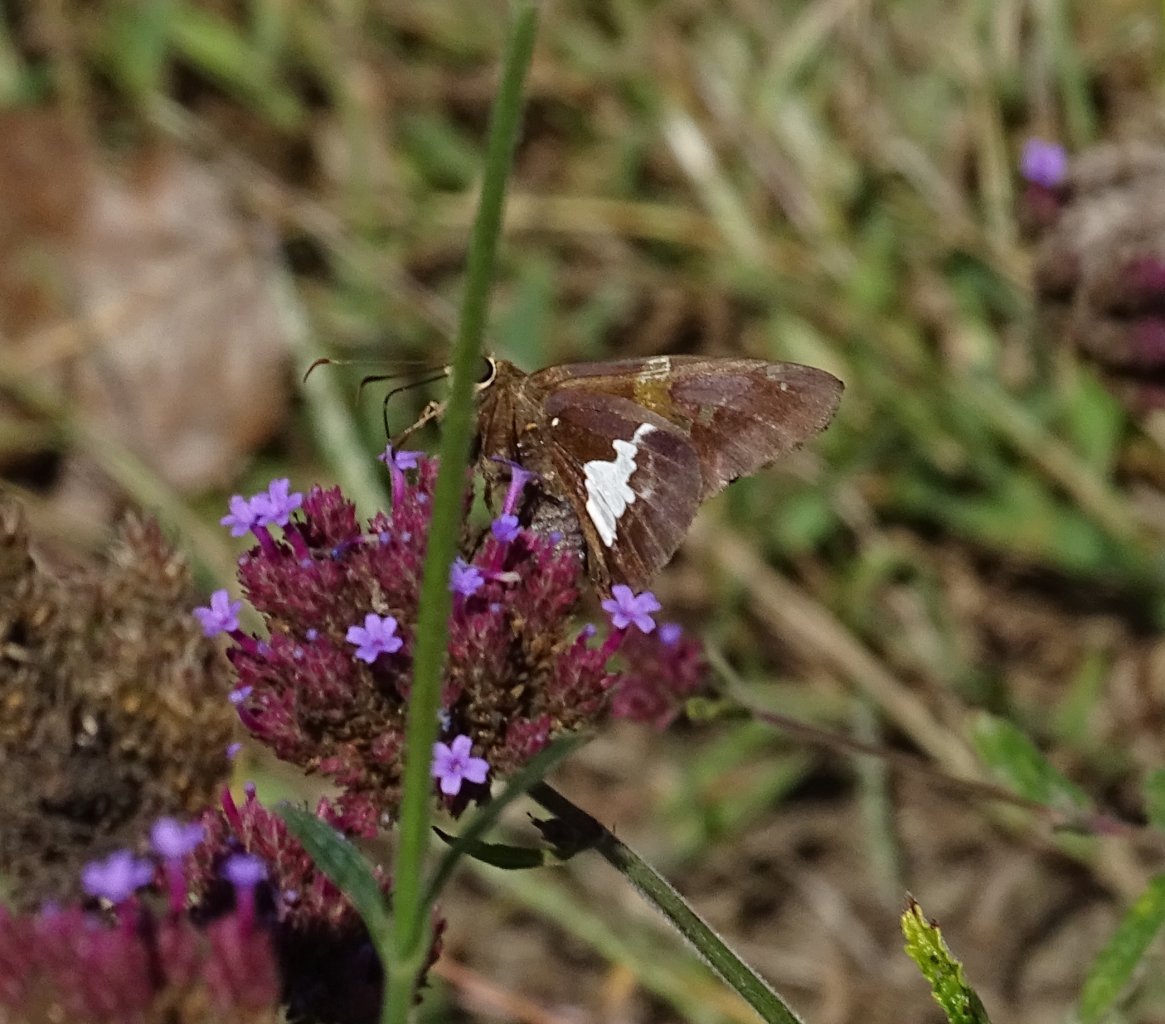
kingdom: Animalia
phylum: Arthropoda
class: Insecta
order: Lepidoptera
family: Hesperiidae
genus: Epargyreus
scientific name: Epargyreus clarus
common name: Silver-spotted Skipper
